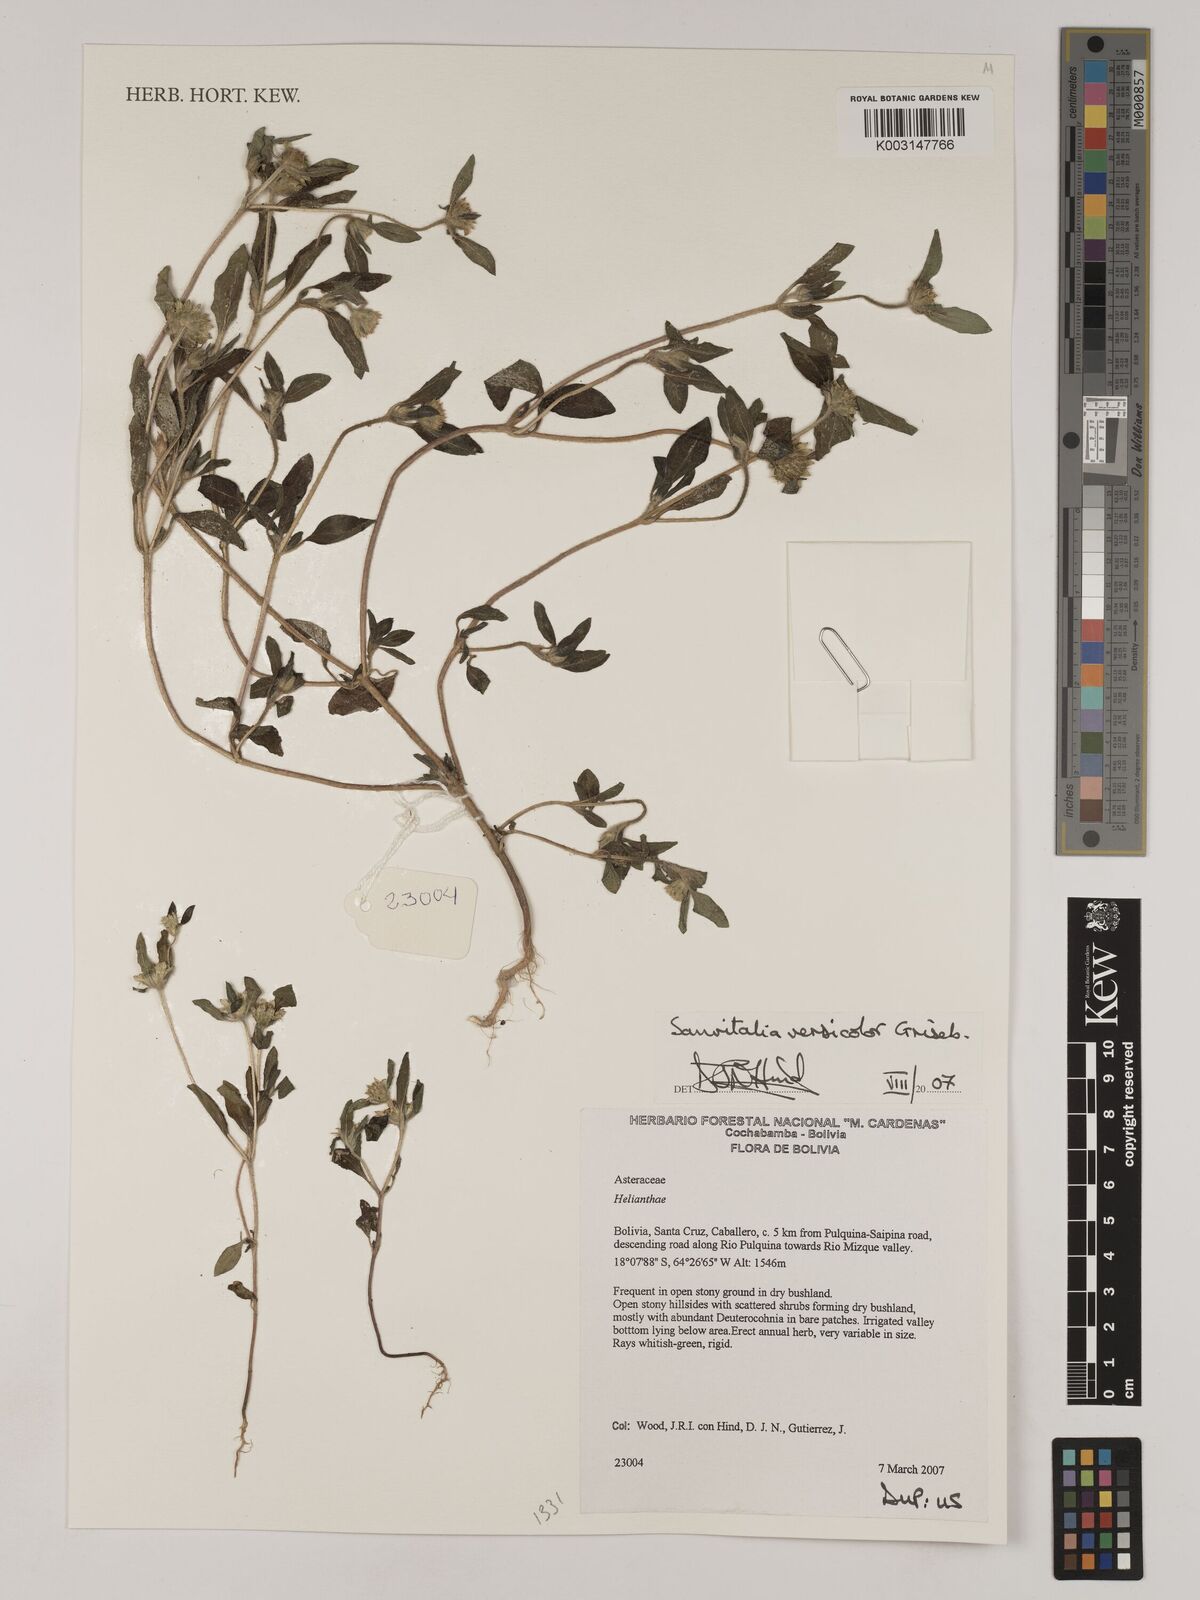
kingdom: Plantae
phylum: Tracheophyta
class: Magnoliopsida
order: Asterales
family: Asteraceae
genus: Sanvitalia
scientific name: Sanvitalia versicolor
